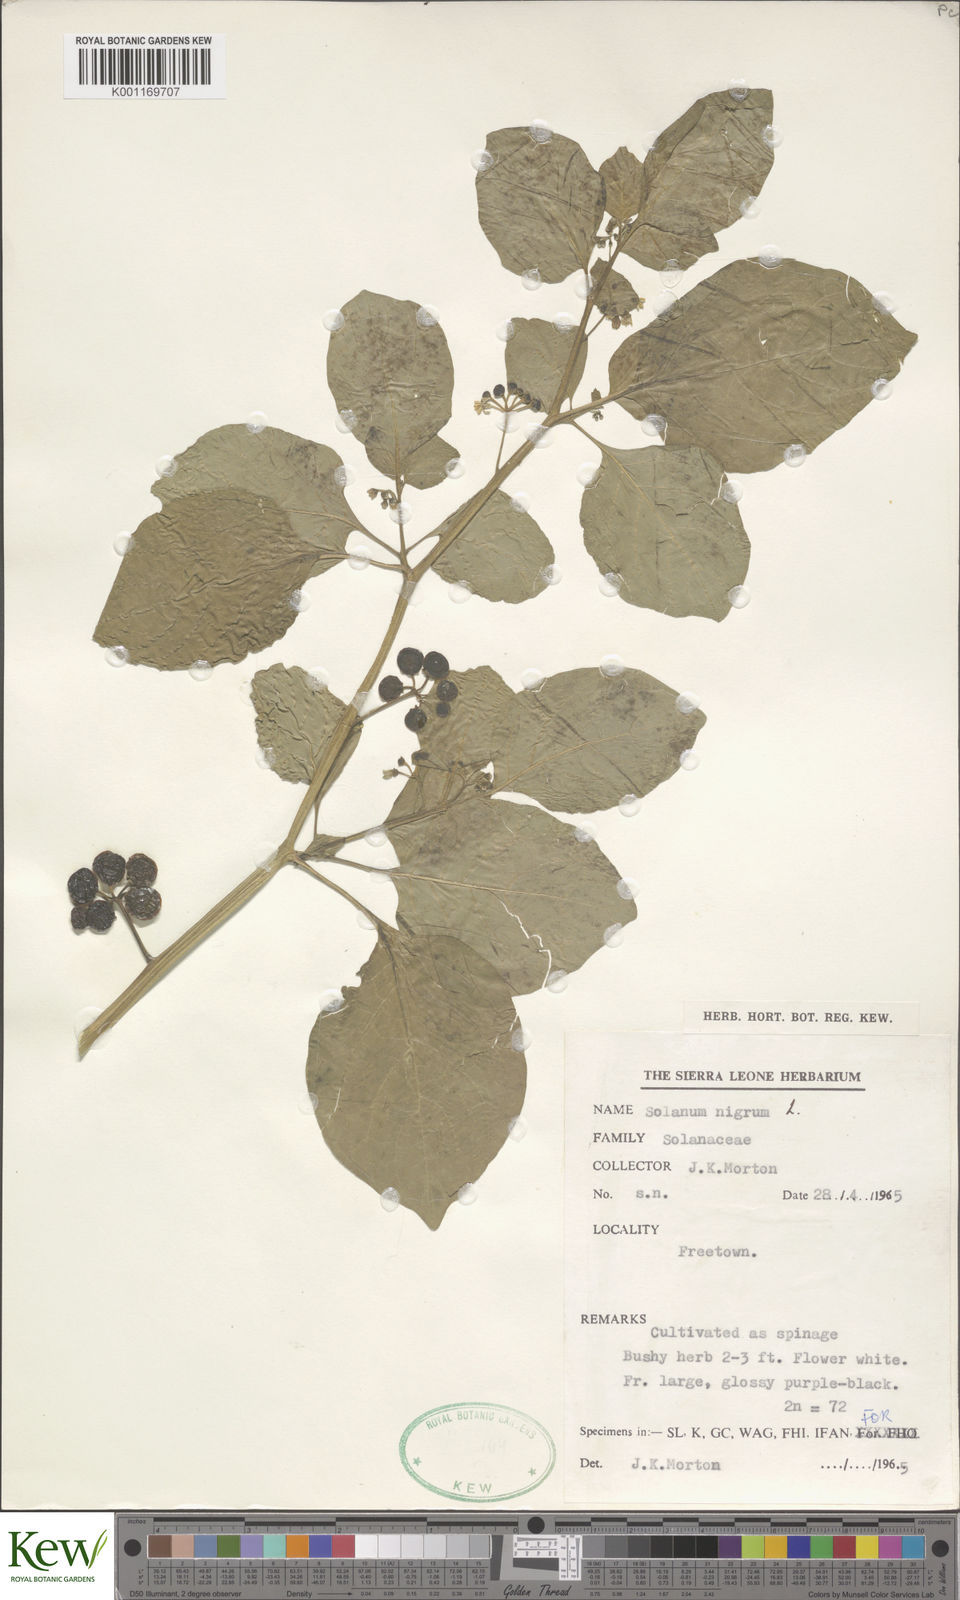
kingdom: Plantae
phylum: Tracheophyta
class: Magnoliopsida
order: Solanales
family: Solanaceae
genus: Solanum
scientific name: Solanum scabrum
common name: Garden-huckleberry
